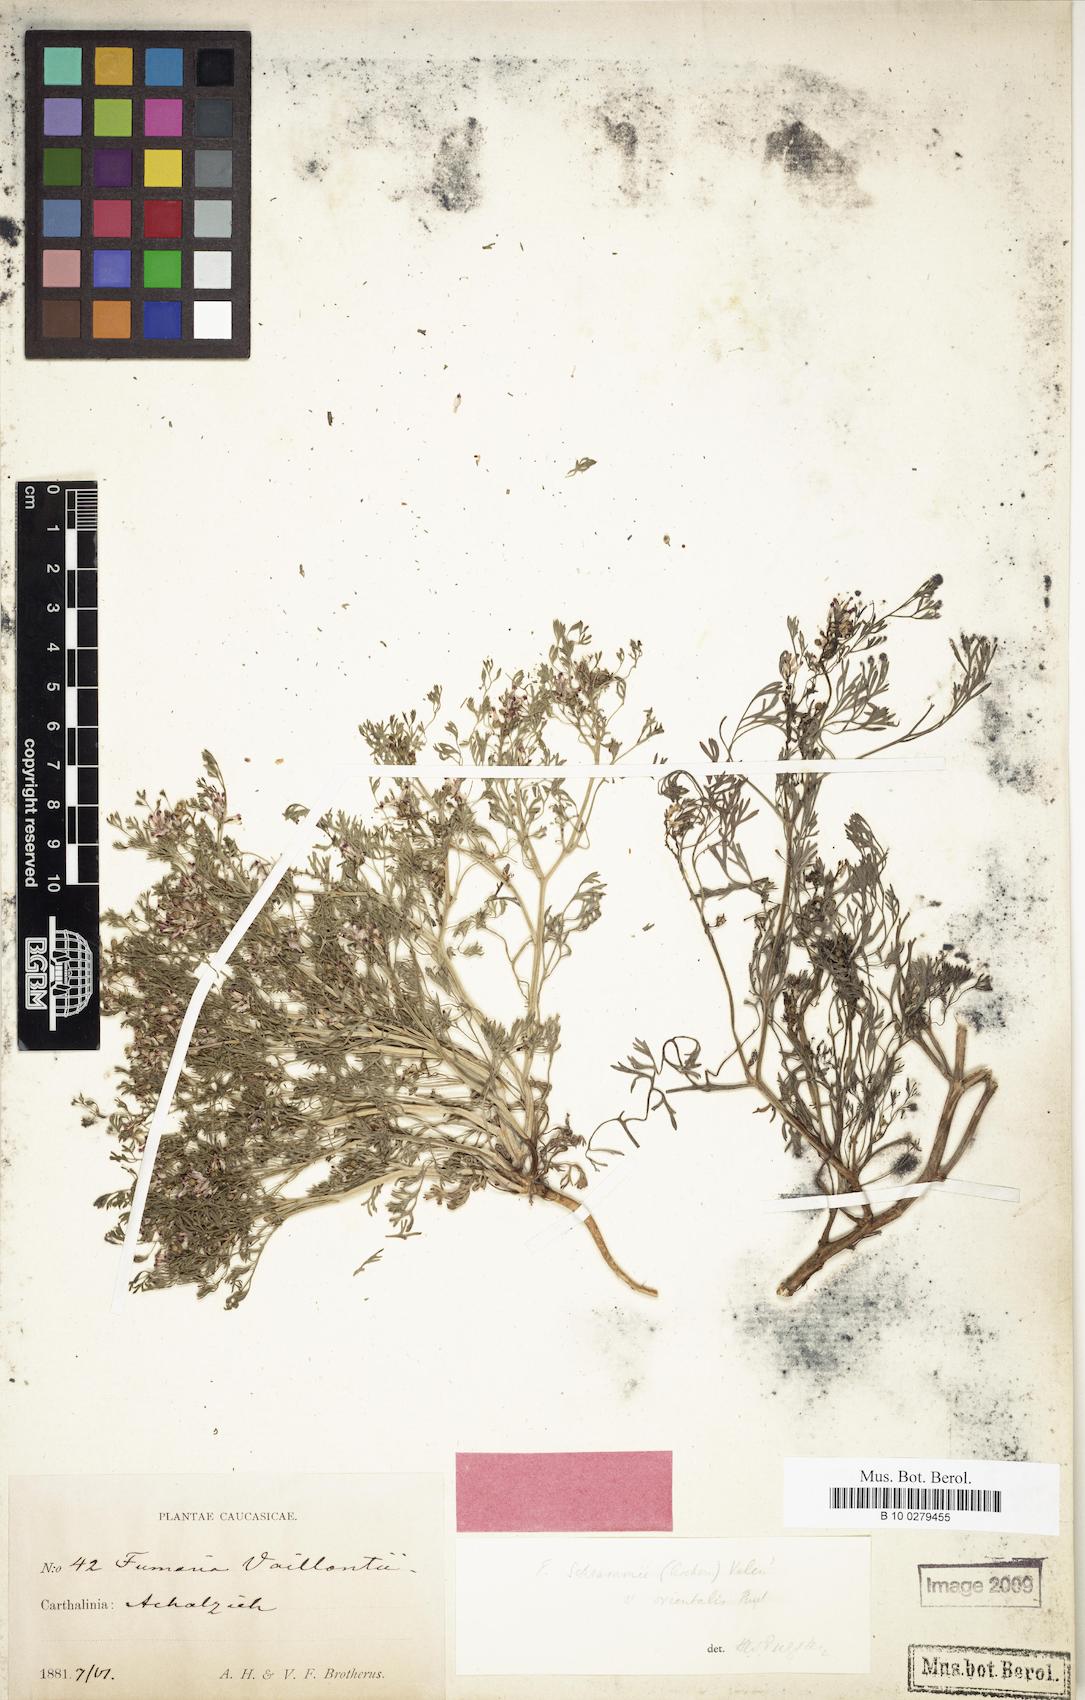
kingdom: Plantae
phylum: Tracheophyta
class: Magnoliopsida
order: Ranunculales
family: Papaveraceae
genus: Fumaria
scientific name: Fumaria vaillantii
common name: Few-flowered fumitory
